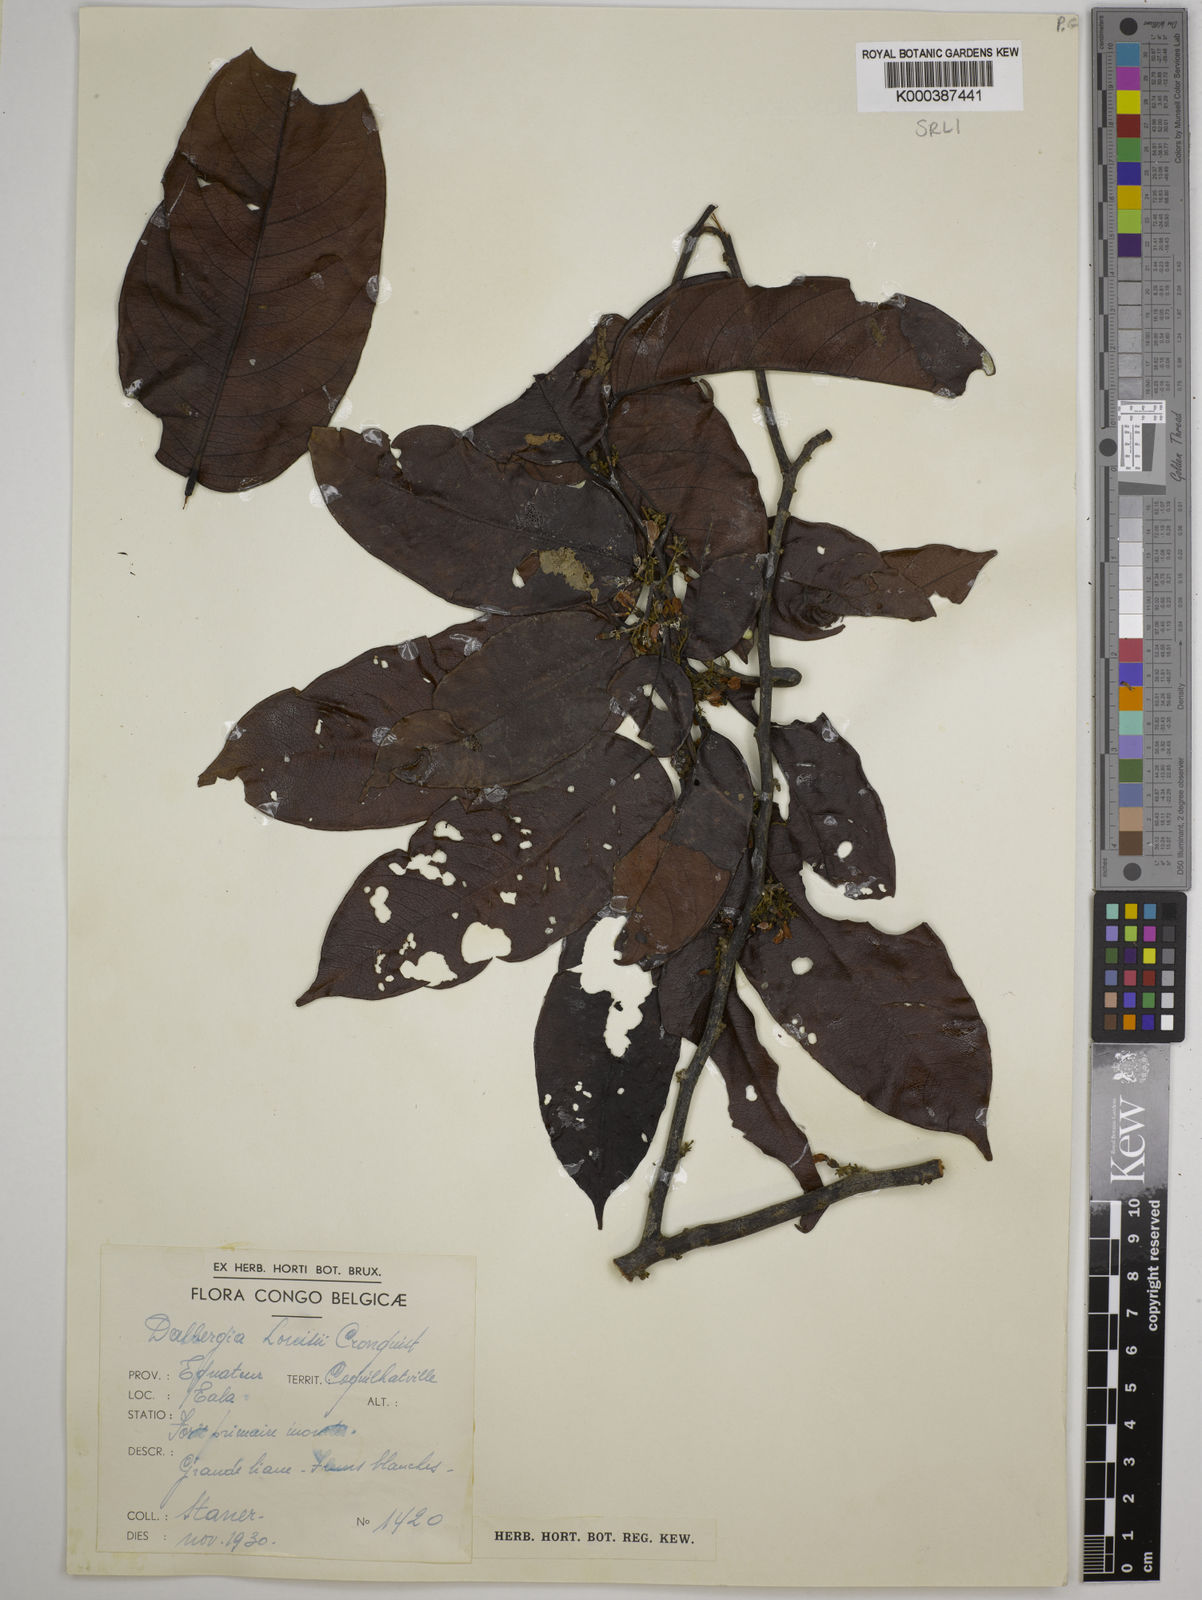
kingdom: Plantae
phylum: Tracheophyta
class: Magnoliopsida
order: Fabales
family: Fabaceae
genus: Dalbergia
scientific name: Dalbergia louisii
